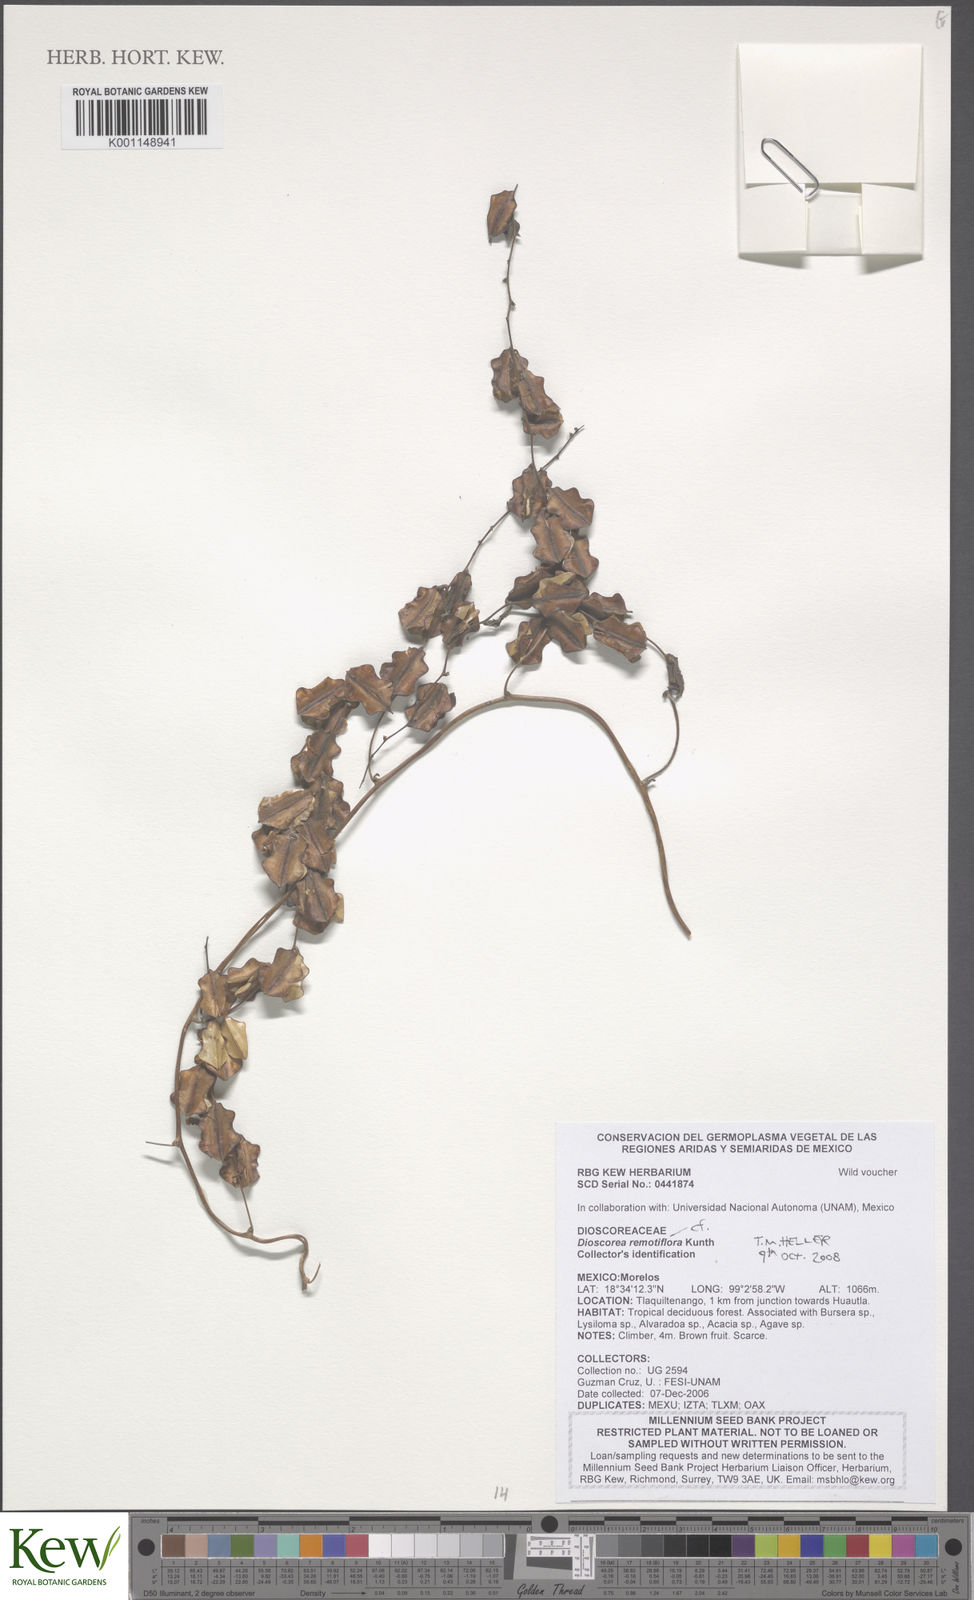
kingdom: Plantae
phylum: Tracheophyta
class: Liliopsida
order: Dioscoreales
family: Dioscoreaceae
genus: Dioscorea
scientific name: Dioscorea remotiflora
